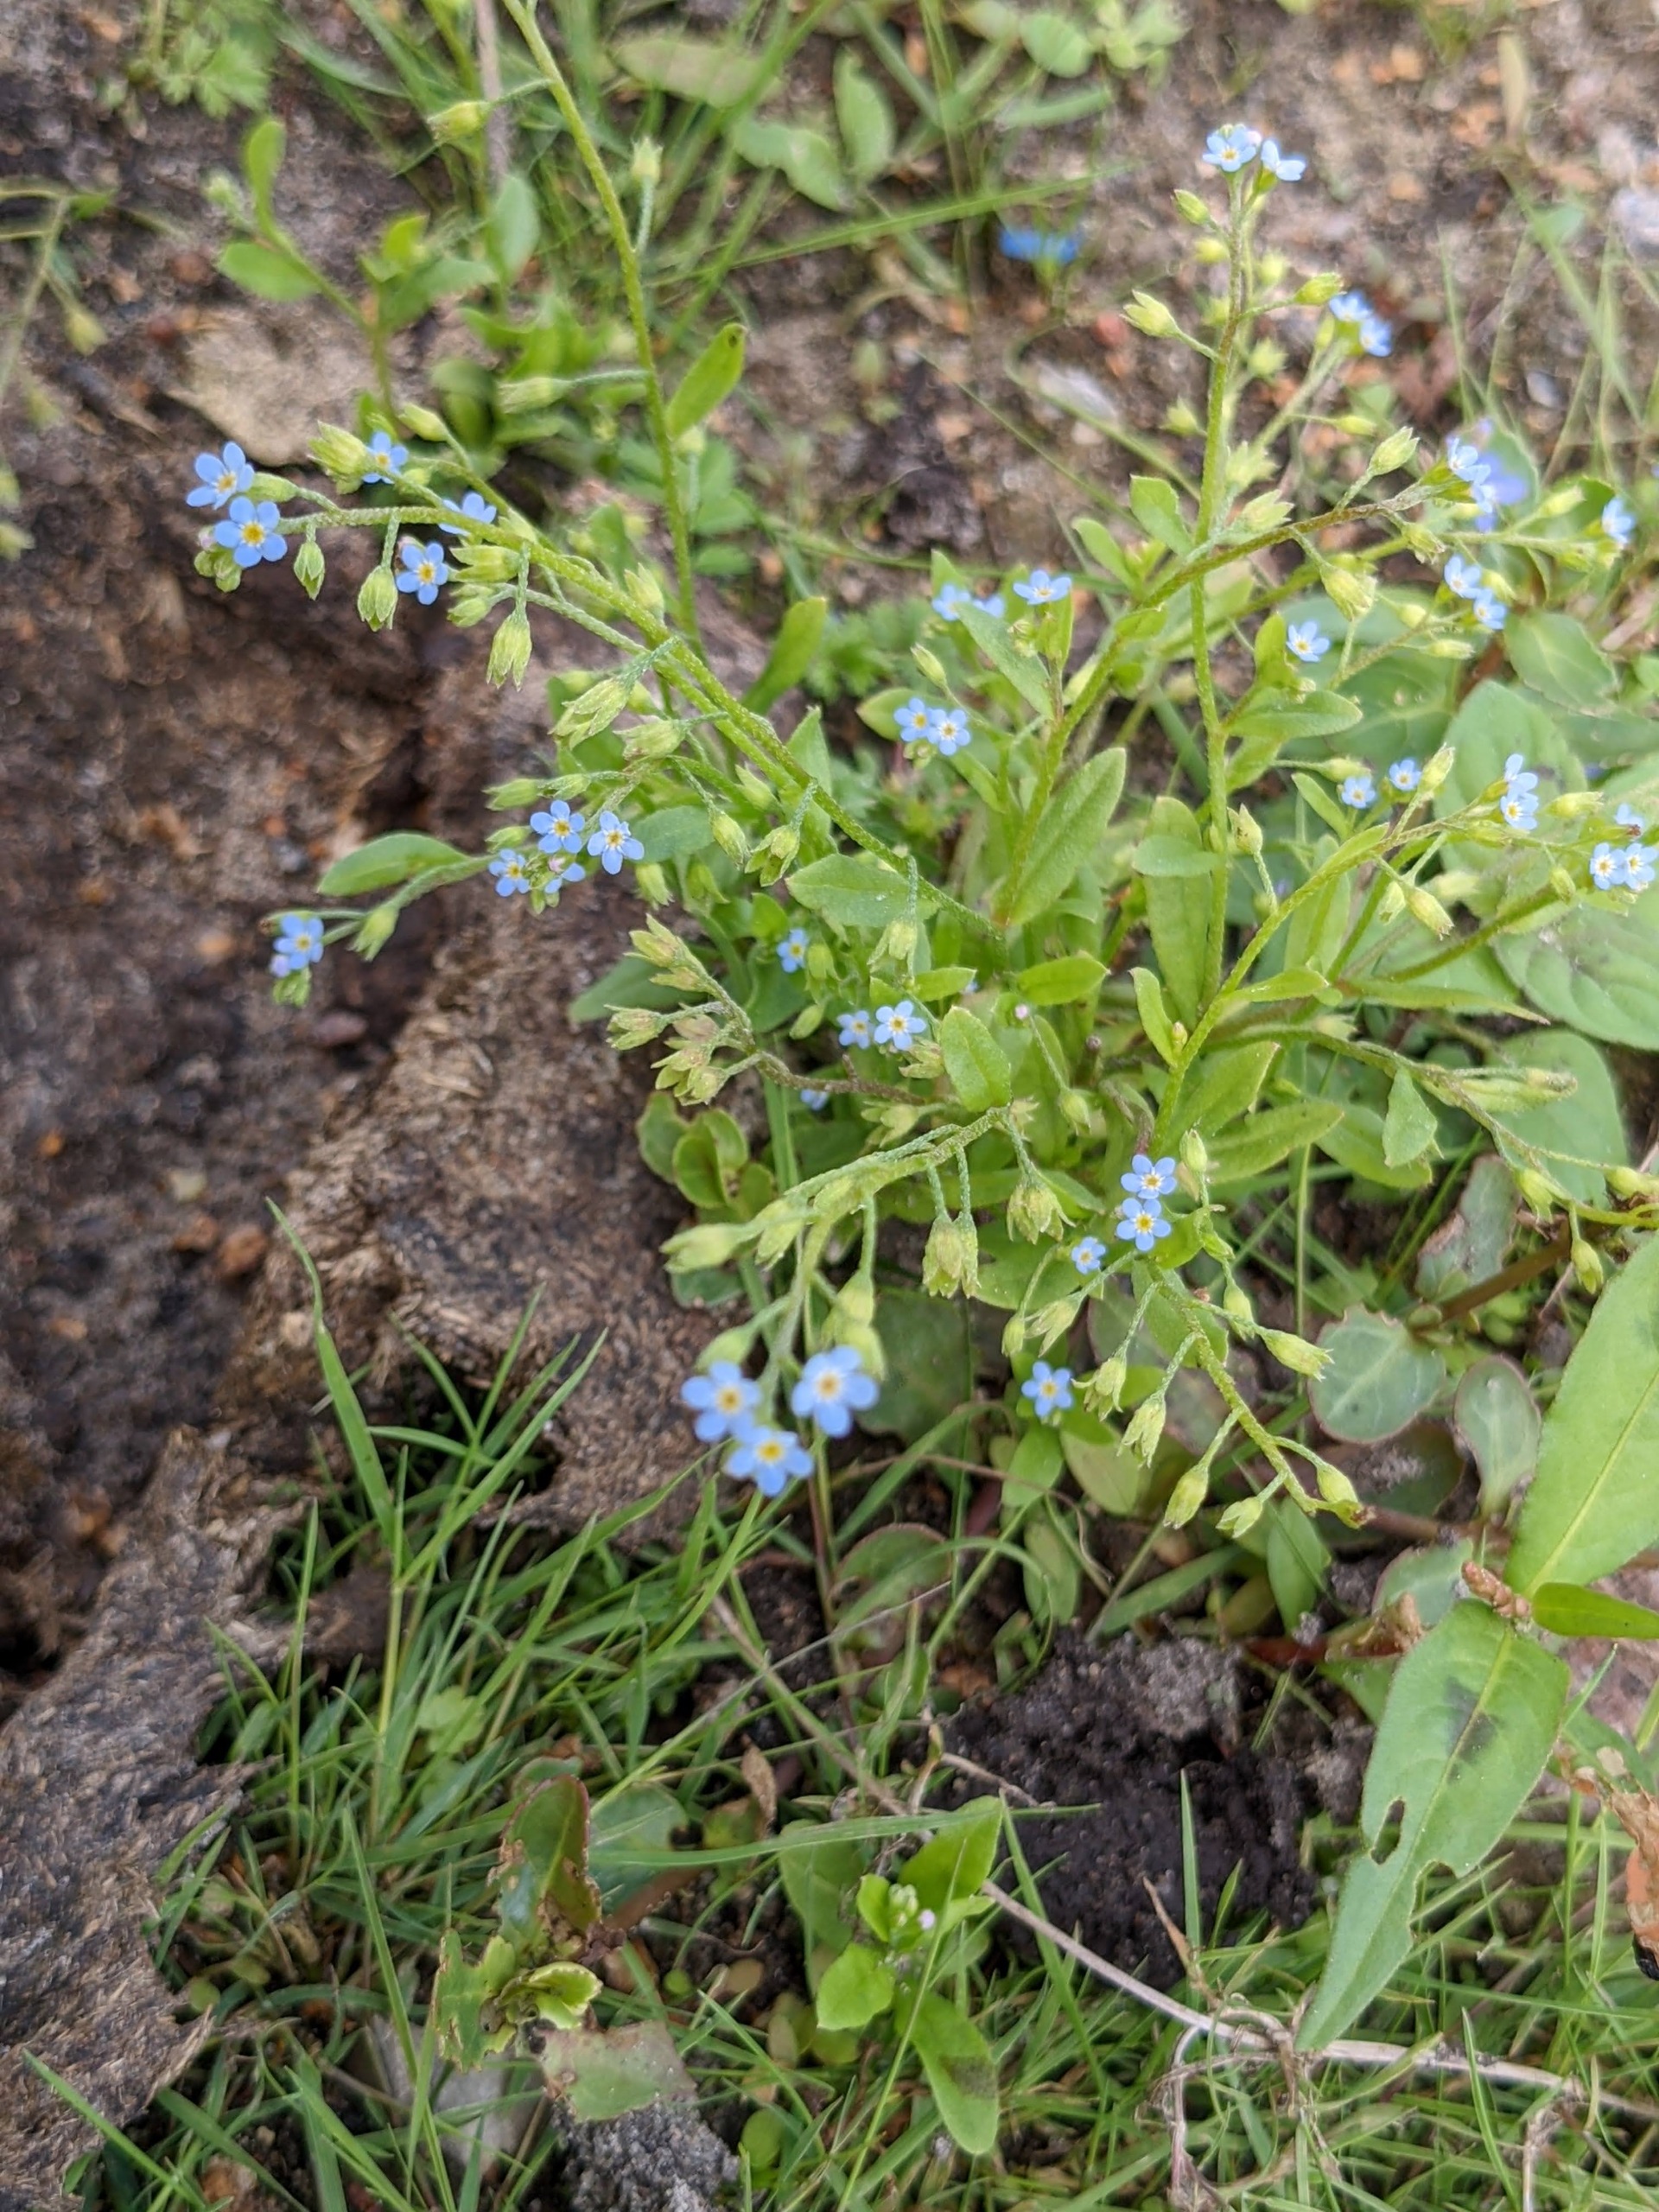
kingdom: Plantae
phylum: Tracheophyta
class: Magnoliopsida
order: Boraginales
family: Boraginaceae
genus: Myosotis
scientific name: Myosotis laxa
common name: Sump-forglemmigej
